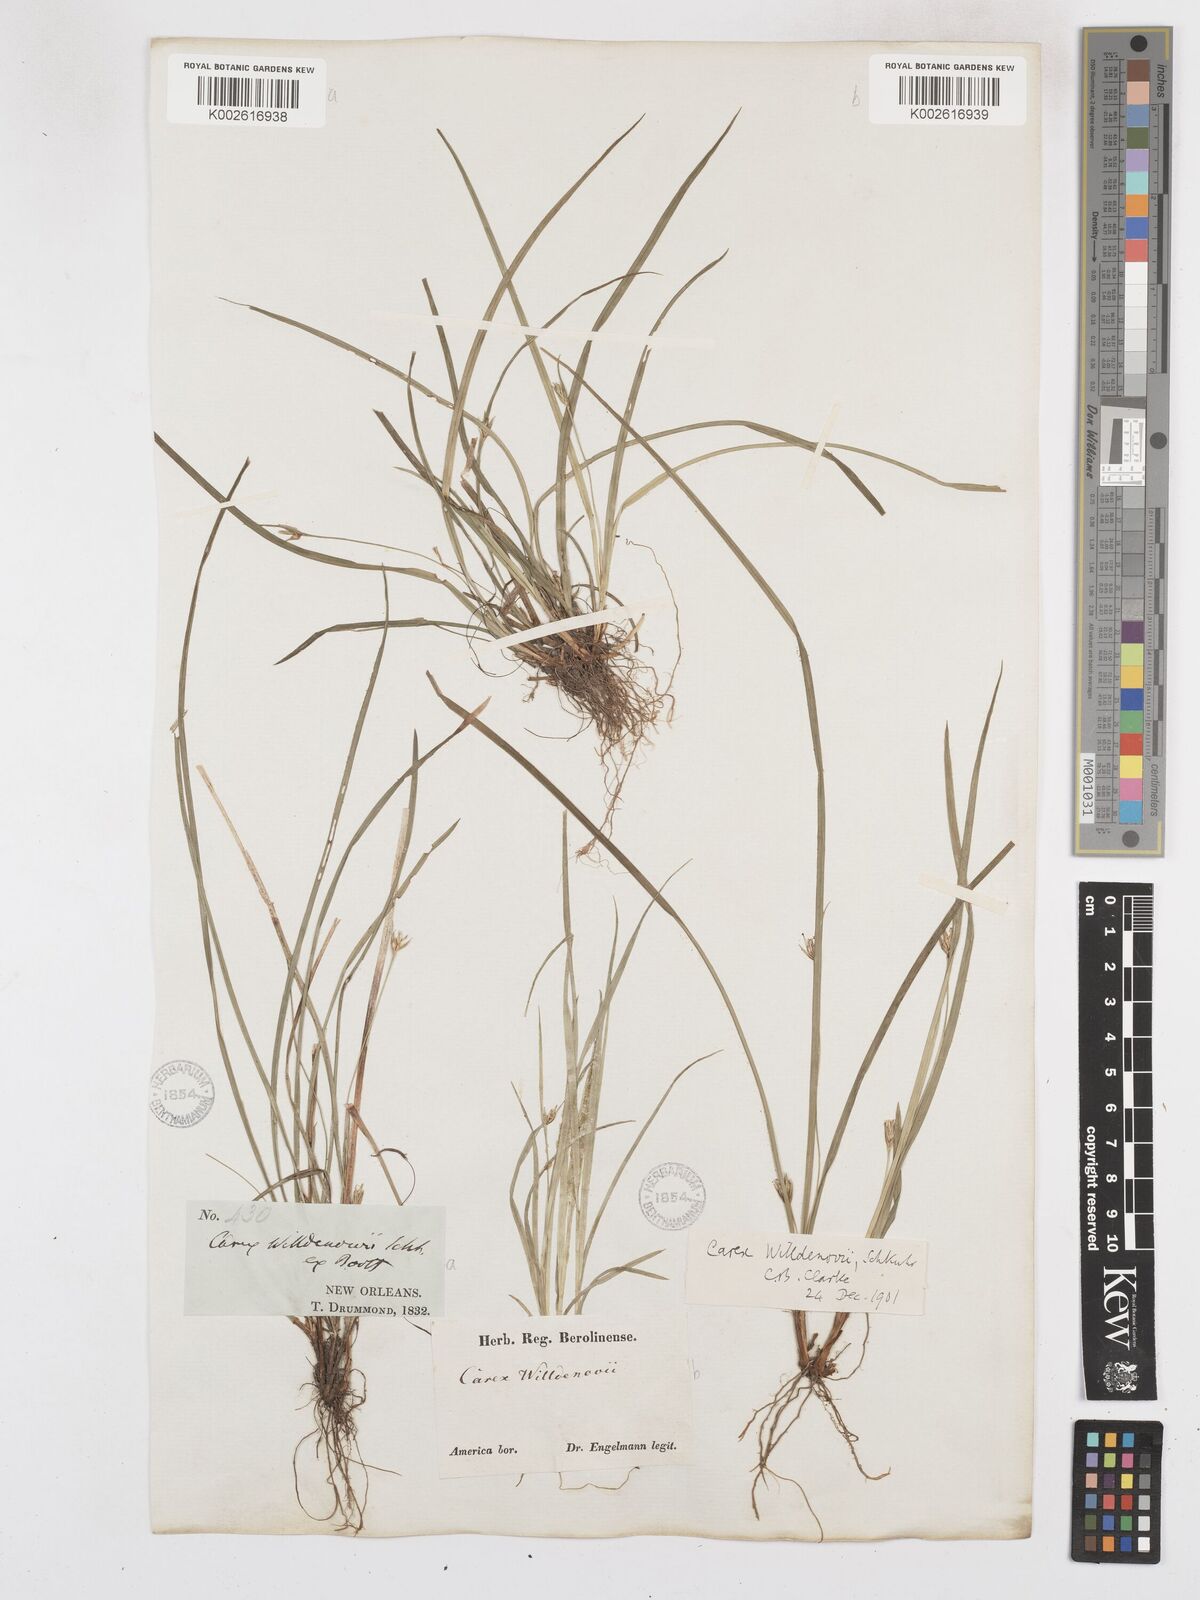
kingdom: Plantae
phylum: Tracheophyta
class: Liliopsida
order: Poales
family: Cyperaceae
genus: Carex
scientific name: Carex willdenowii
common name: Willdenow's sedge
